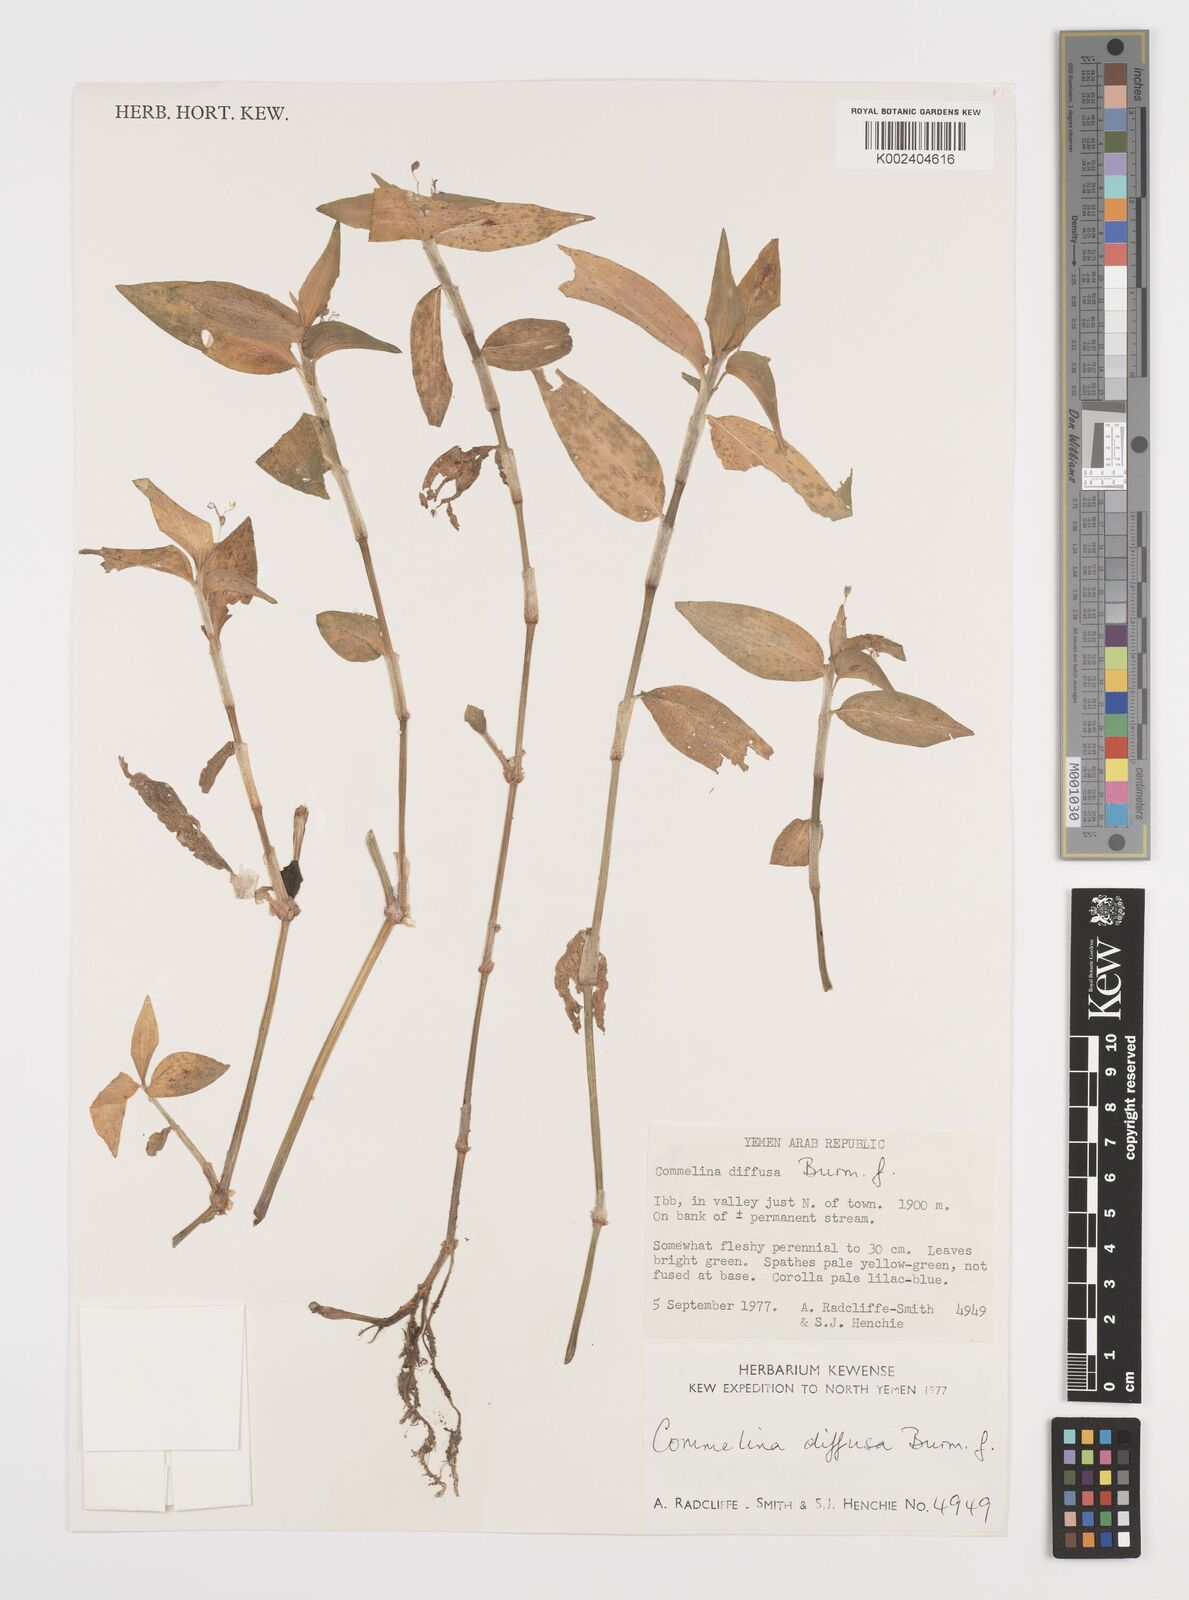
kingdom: Plantae
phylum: Tracheophyta
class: Liliopsida
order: Commelinales
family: Commelinaceae
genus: Commelina
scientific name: Commelina diffusa
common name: Climbing dayflower
